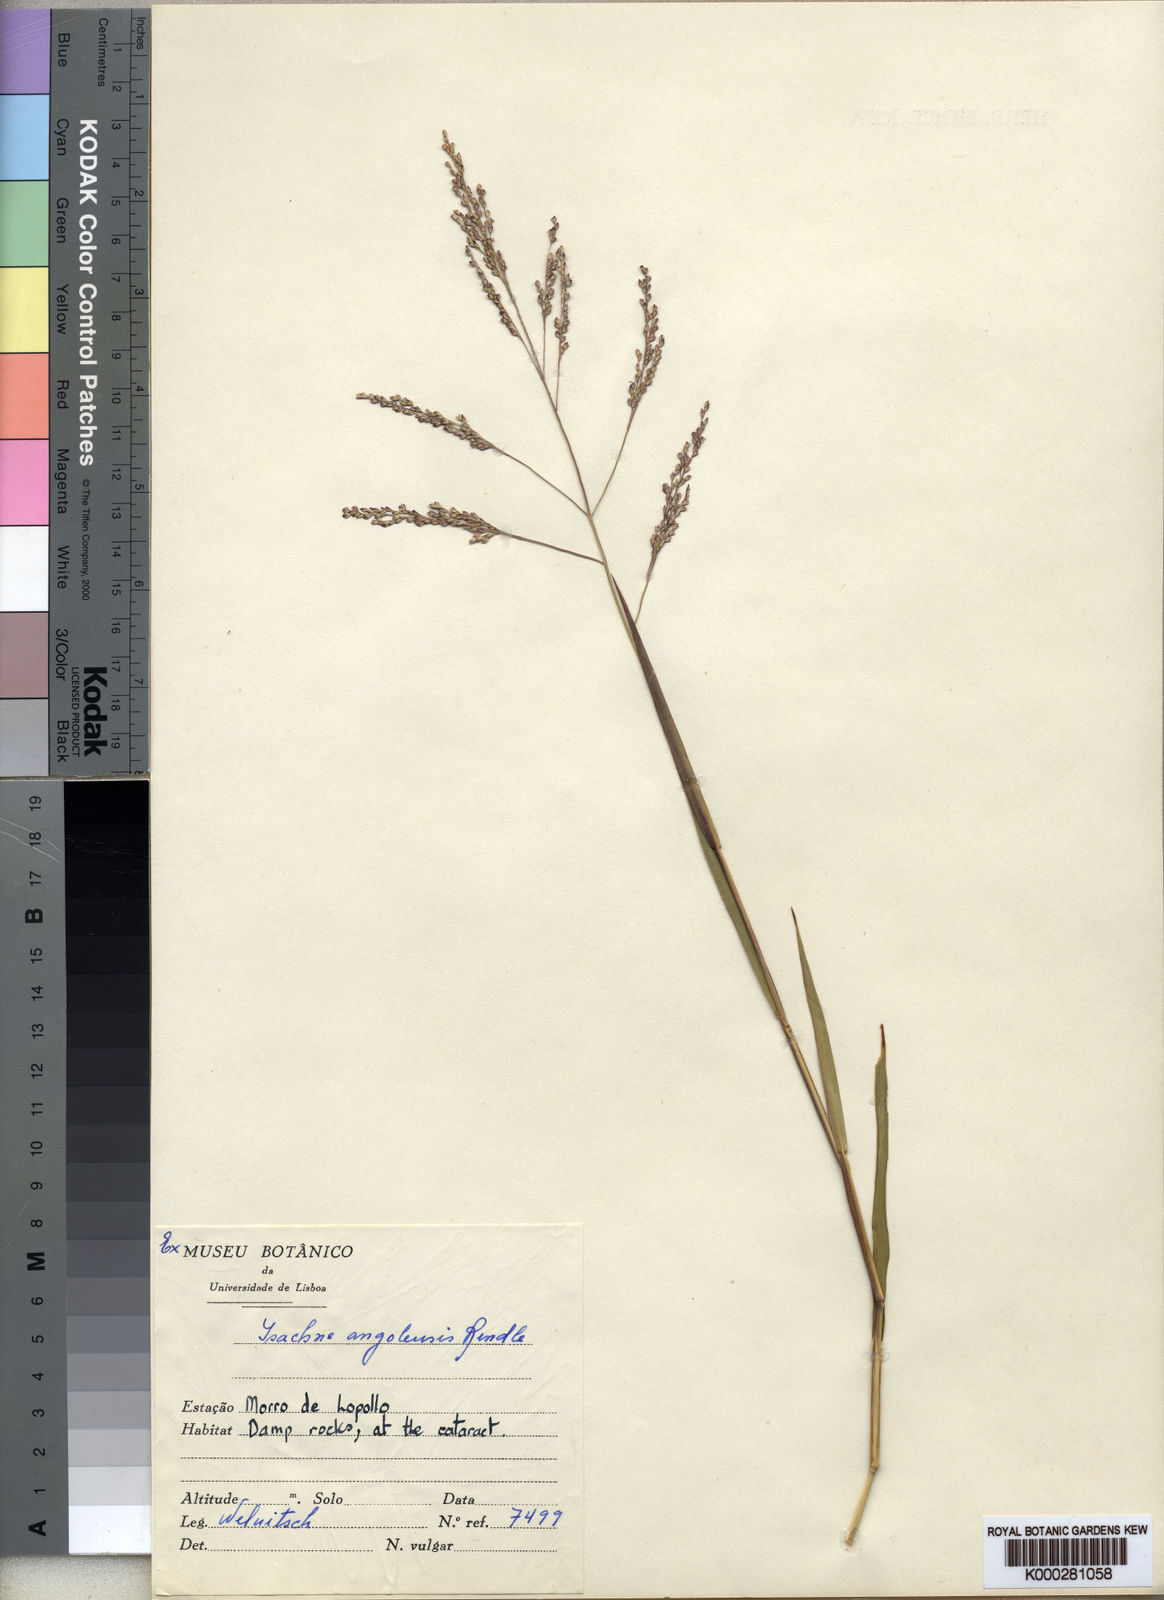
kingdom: Plantae
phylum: Tracheophyta
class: Liliopsida
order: Poales
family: Poaceae
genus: Isachne
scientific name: Isachne angolensis
